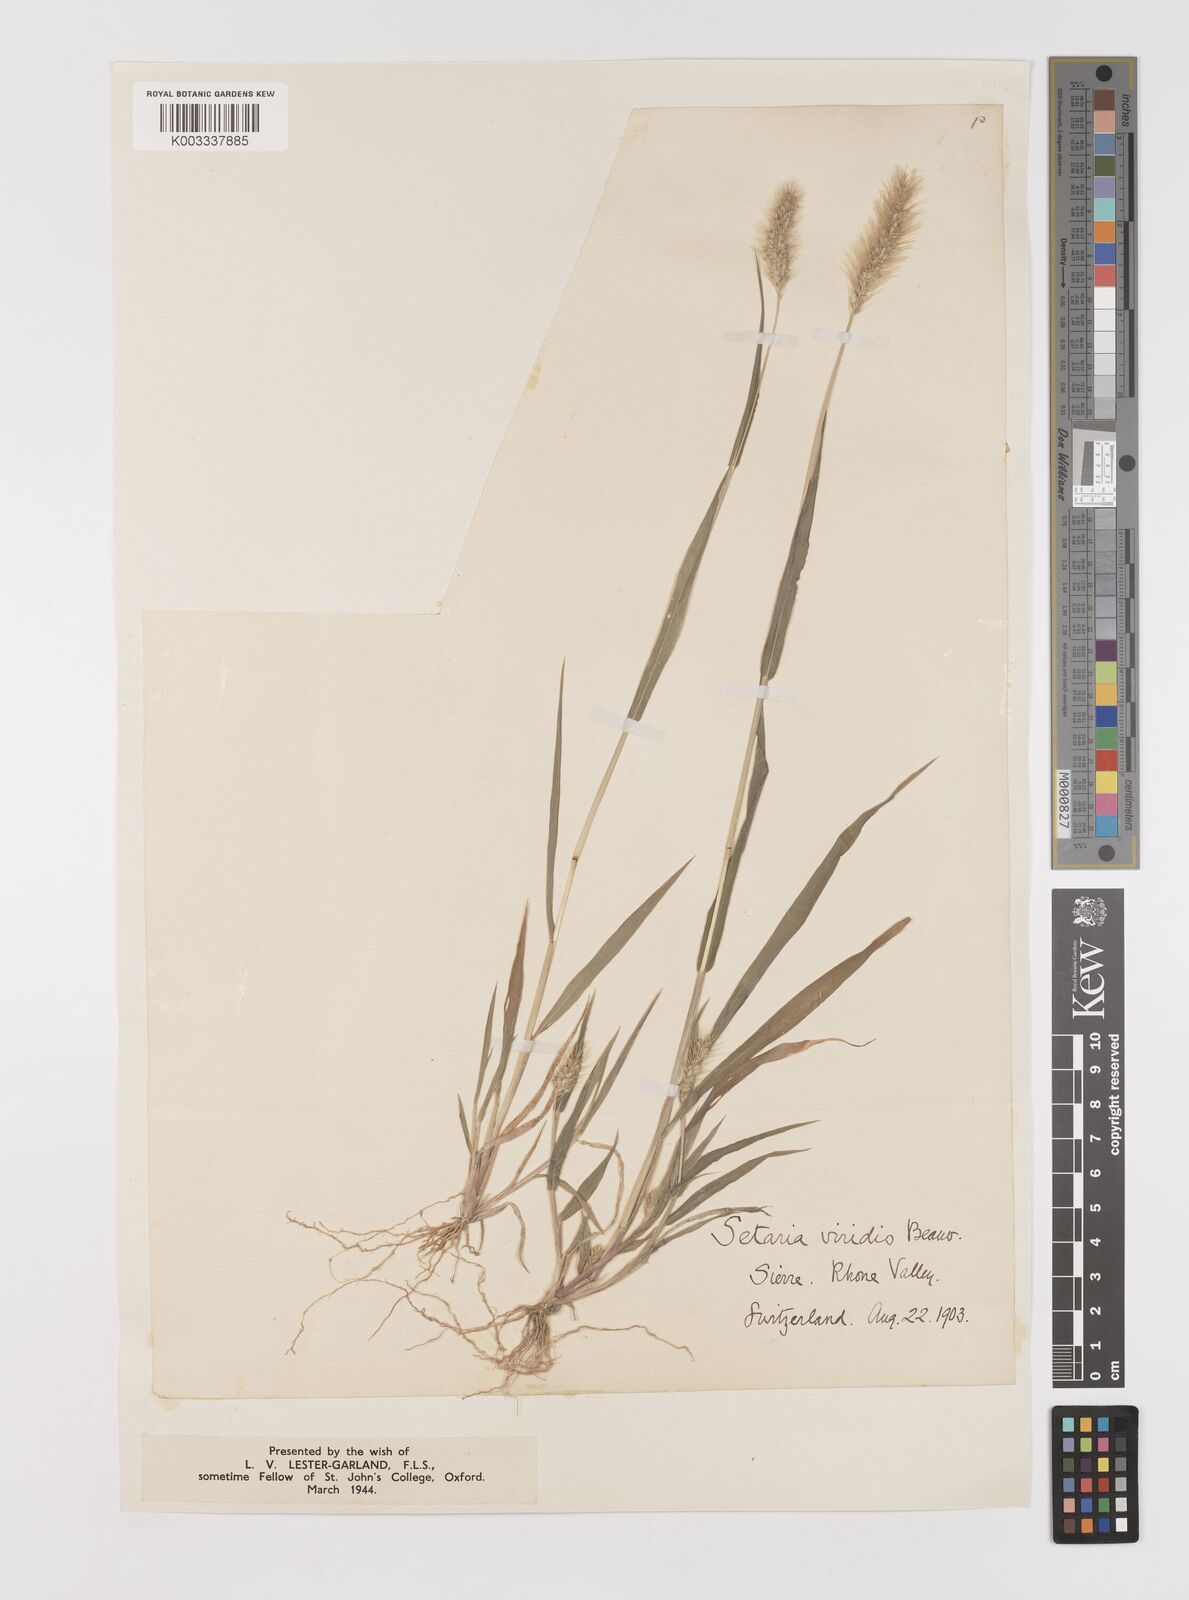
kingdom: Plantae
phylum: Tracheophyta
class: Liliopsida
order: Poales
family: Poaceae
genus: Setaria
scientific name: Setaria viridis
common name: Green bristlegrass
